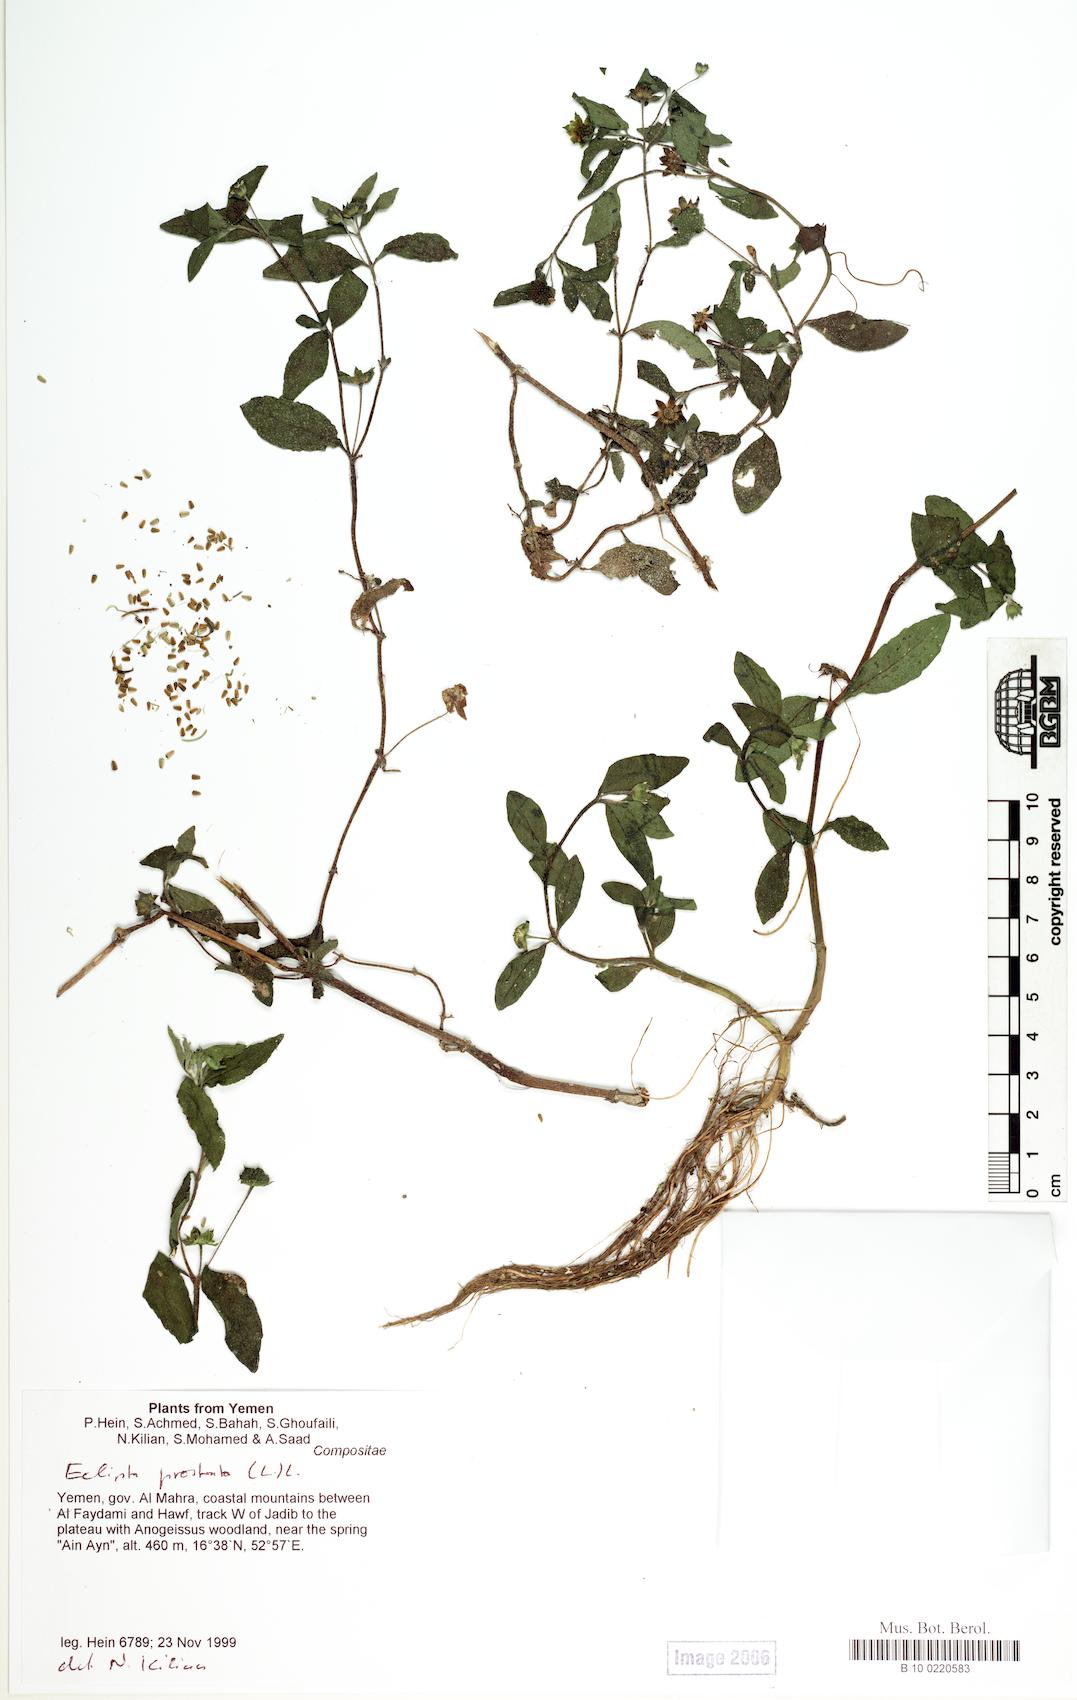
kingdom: Plantae
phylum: Tracheophyta
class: Magnoliopsida
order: Caryophyllales
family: Caryophyllaceae
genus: Stellaria
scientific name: Stellaria apetala
